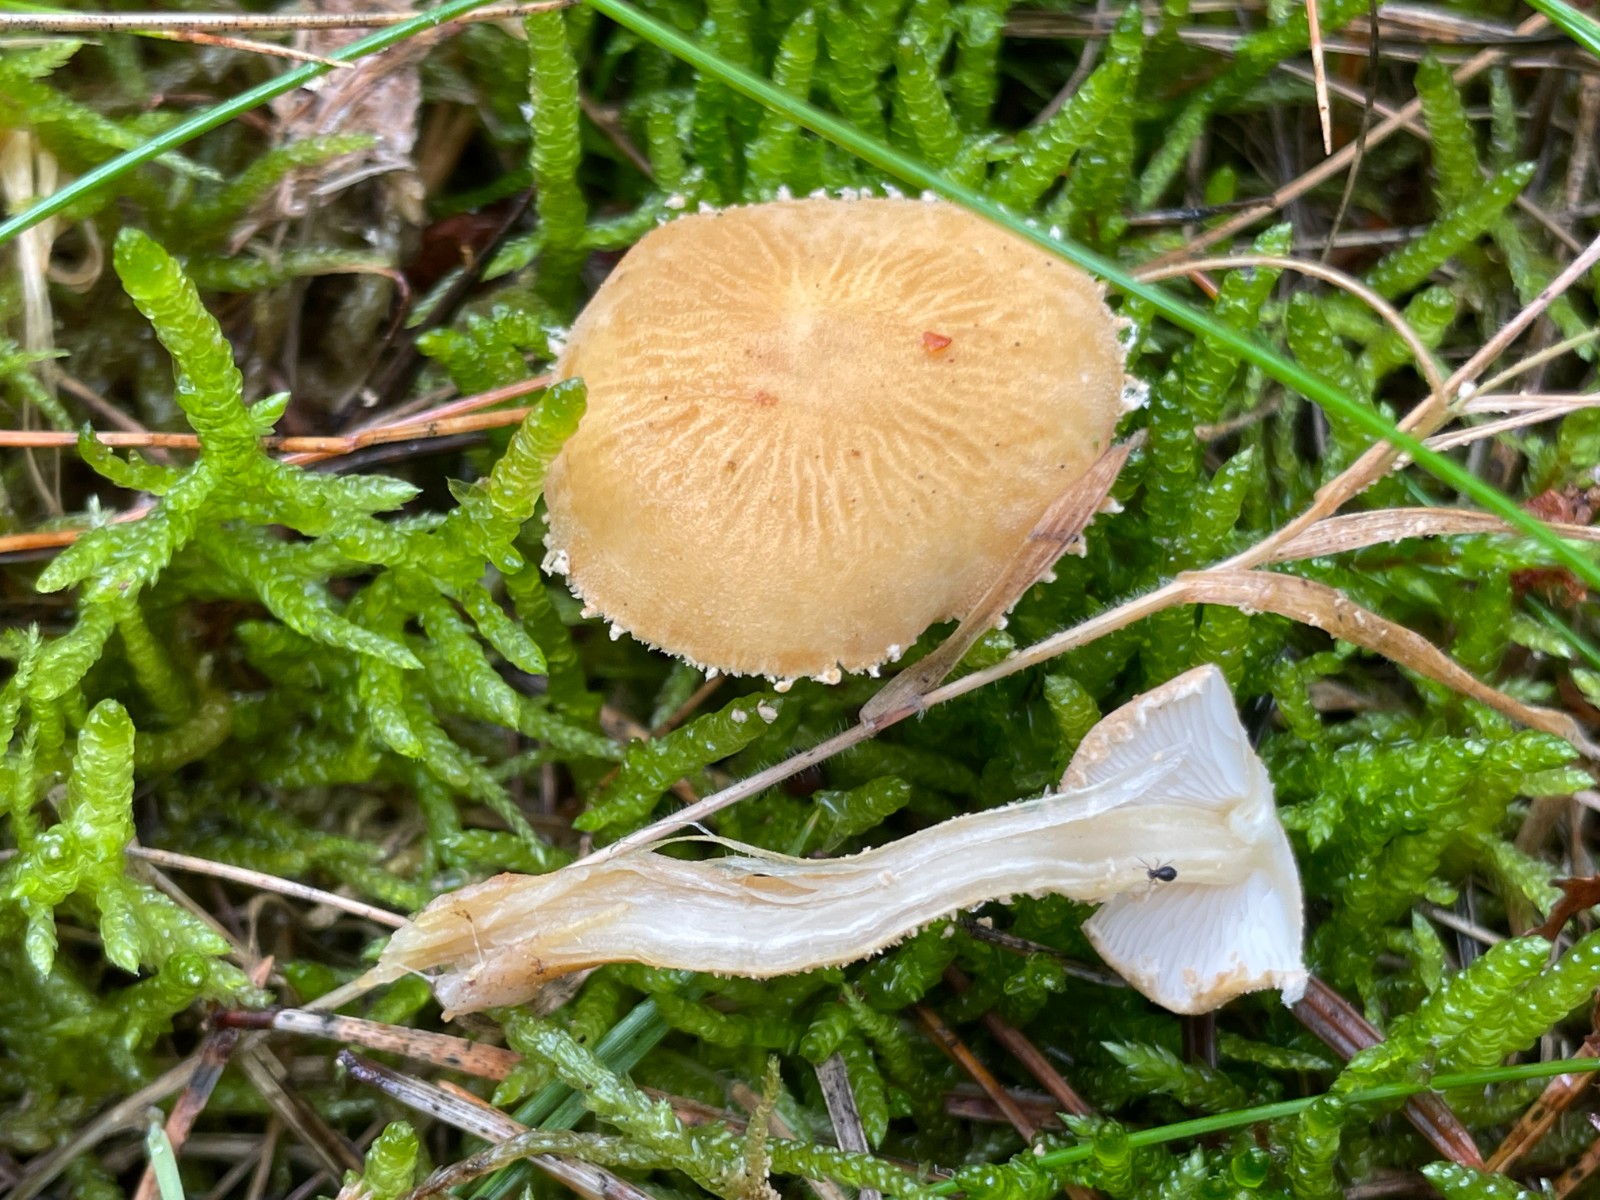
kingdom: Fungi
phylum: Basidiomycota
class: Agaricomycetes
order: Agaricales
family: Tricholomataceae
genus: Cystoderma
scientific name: Cystoderma amianthinum
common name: okkergul grynhat
